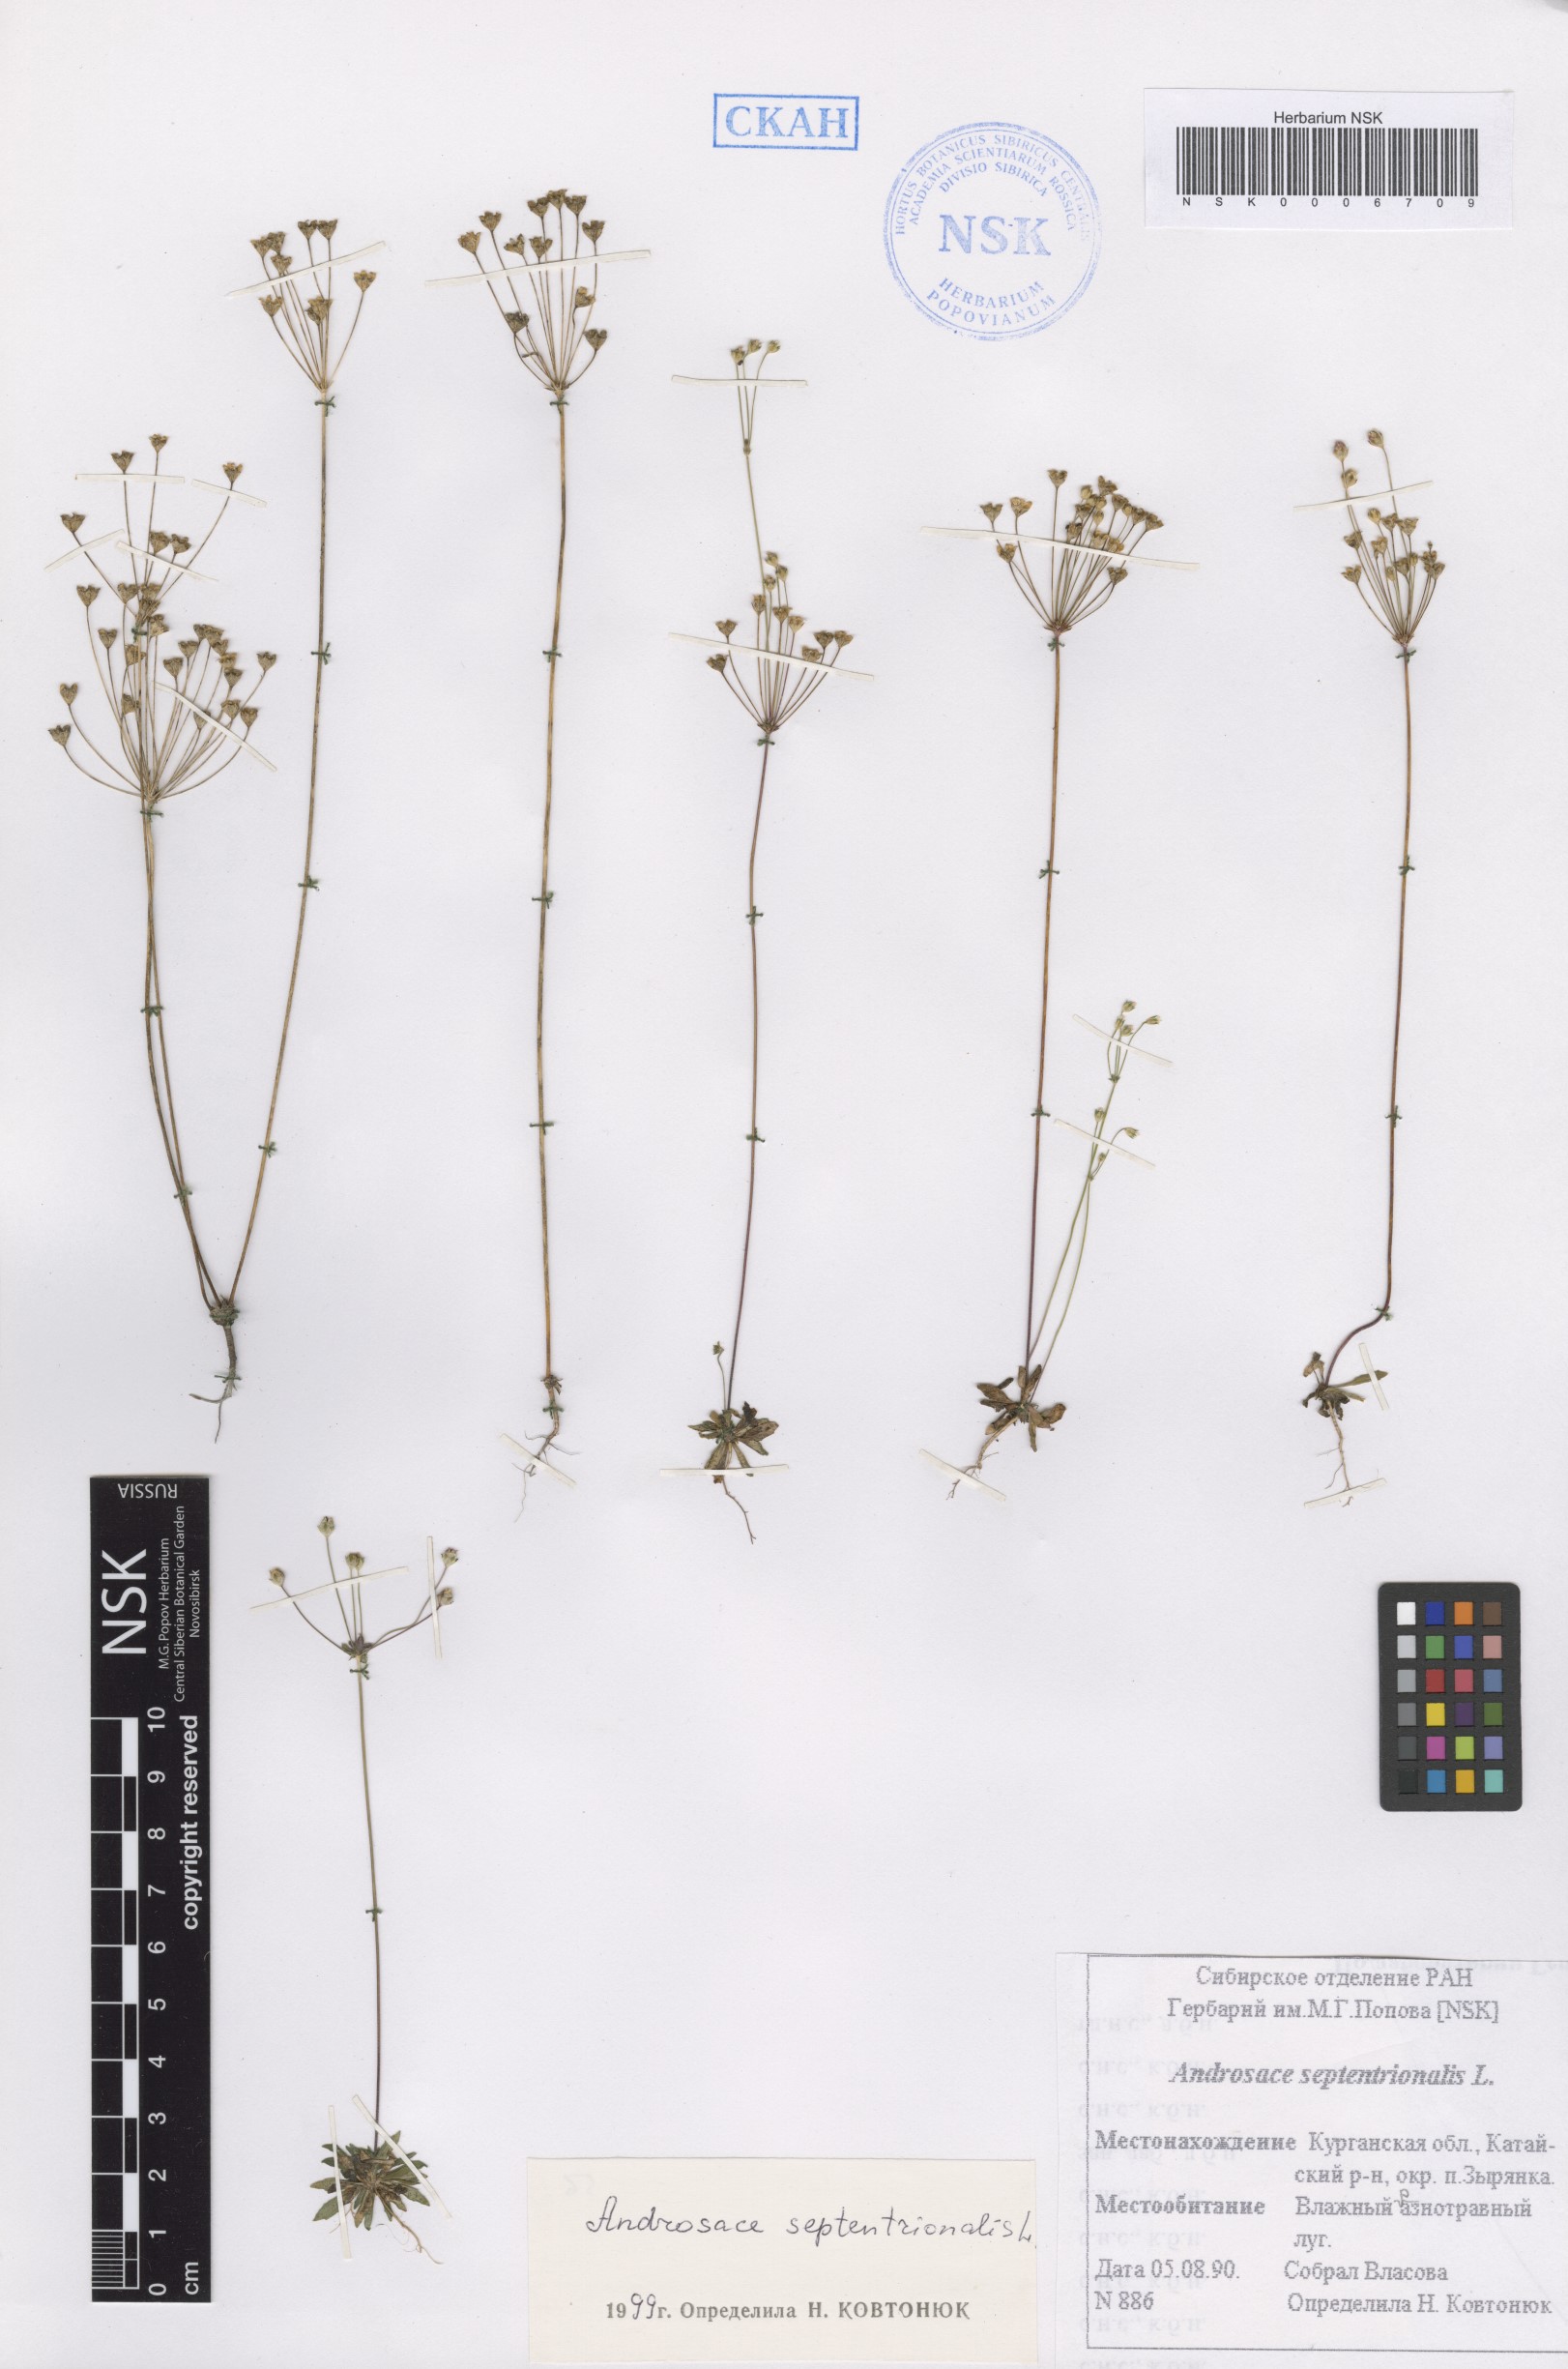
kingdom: Plantae
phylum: Tracheophyta
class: Magnoliopsida
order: Ericales
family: Primulaceae
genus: Androsace
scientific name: Androsace septentrionalis
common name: Hairy northern fairy-candelabra
